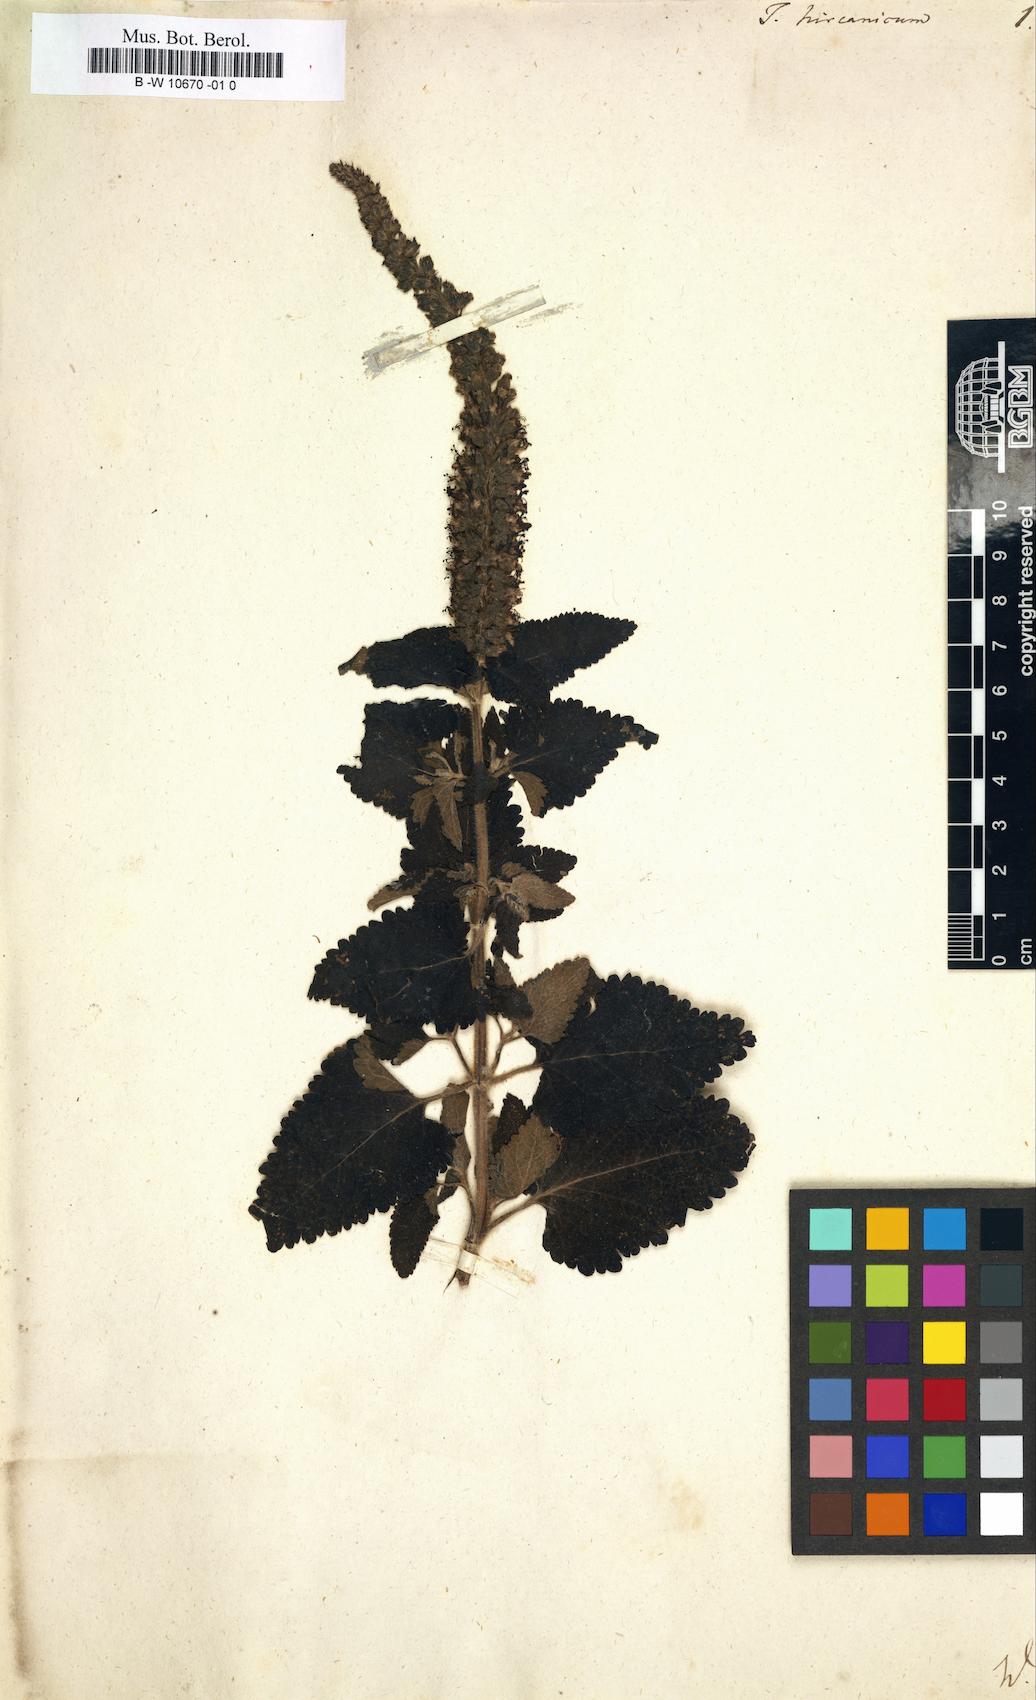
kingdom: Plantae
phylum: Tracheophyta
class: Magnoliopsida
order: Lamiales
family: Lamiaceae
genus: Teucrium
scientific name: Teucrium hircanicum
